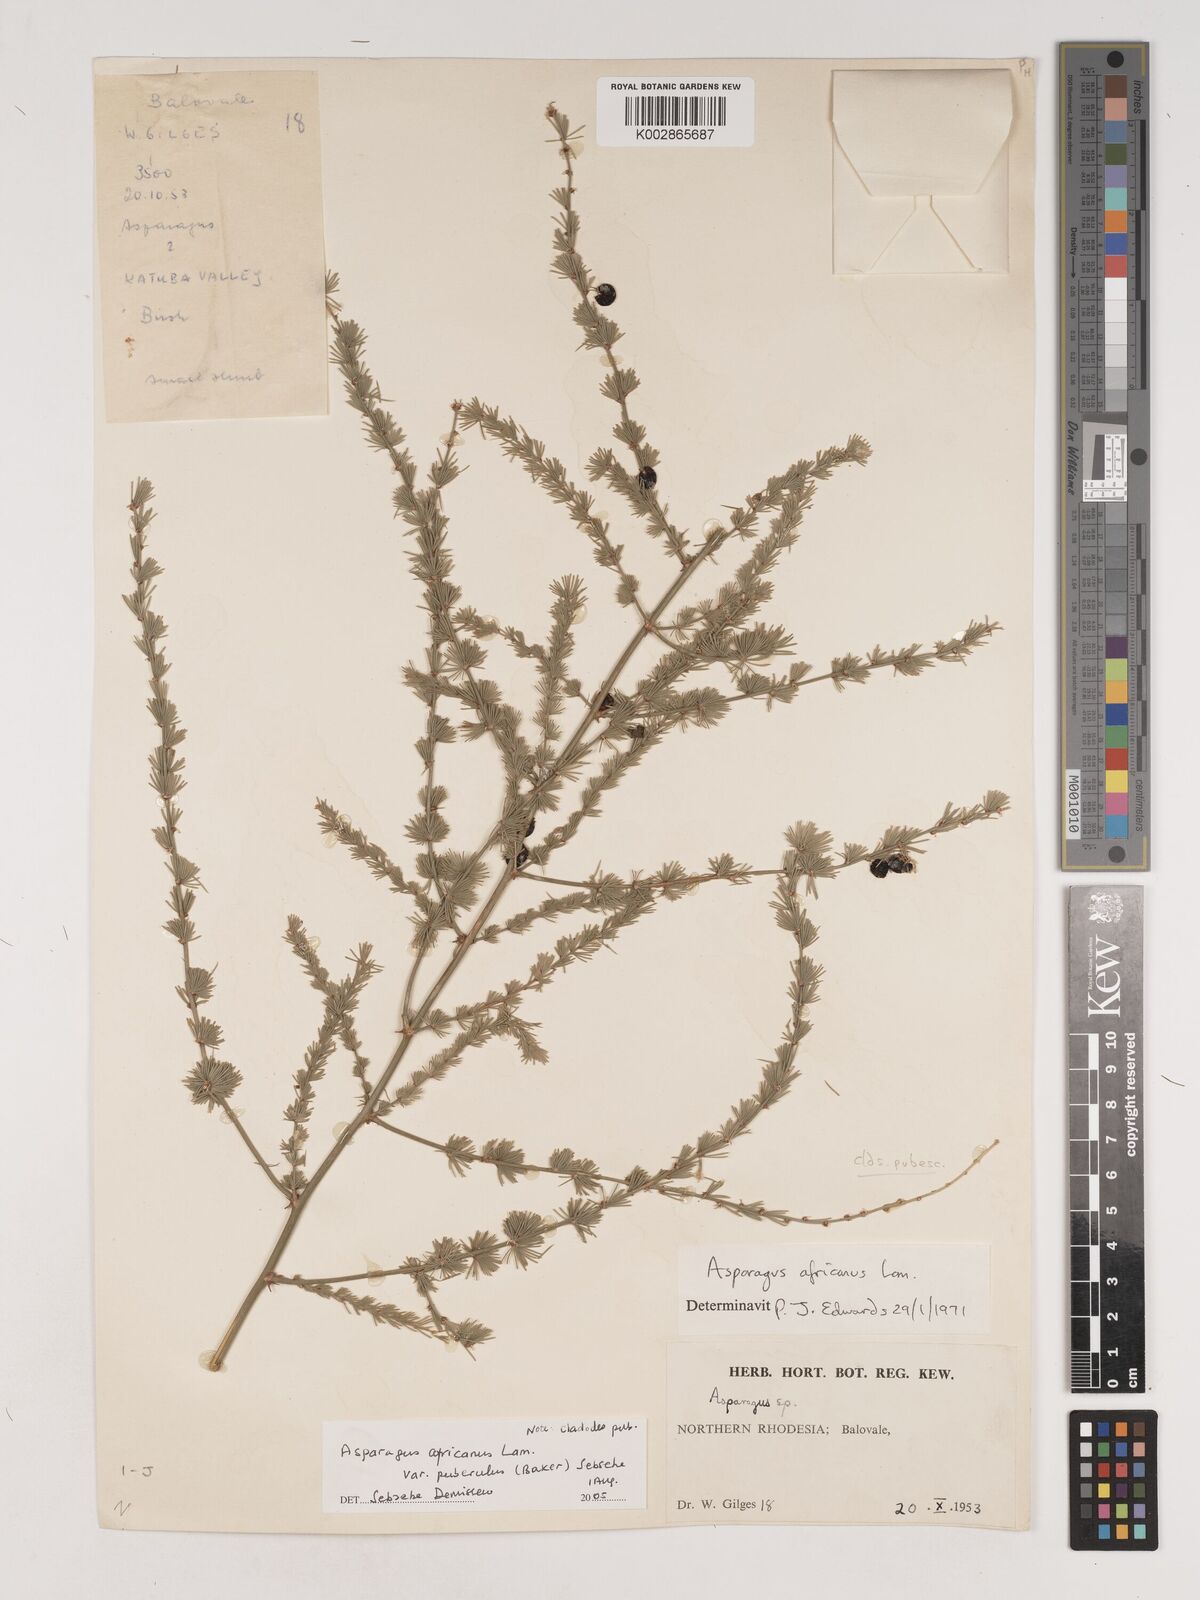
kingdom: Plantae
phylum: Tracheophyta
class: Liliopsida
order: Asparagales
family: Asparagaceae
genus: Asparagus
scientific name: Asparagus
